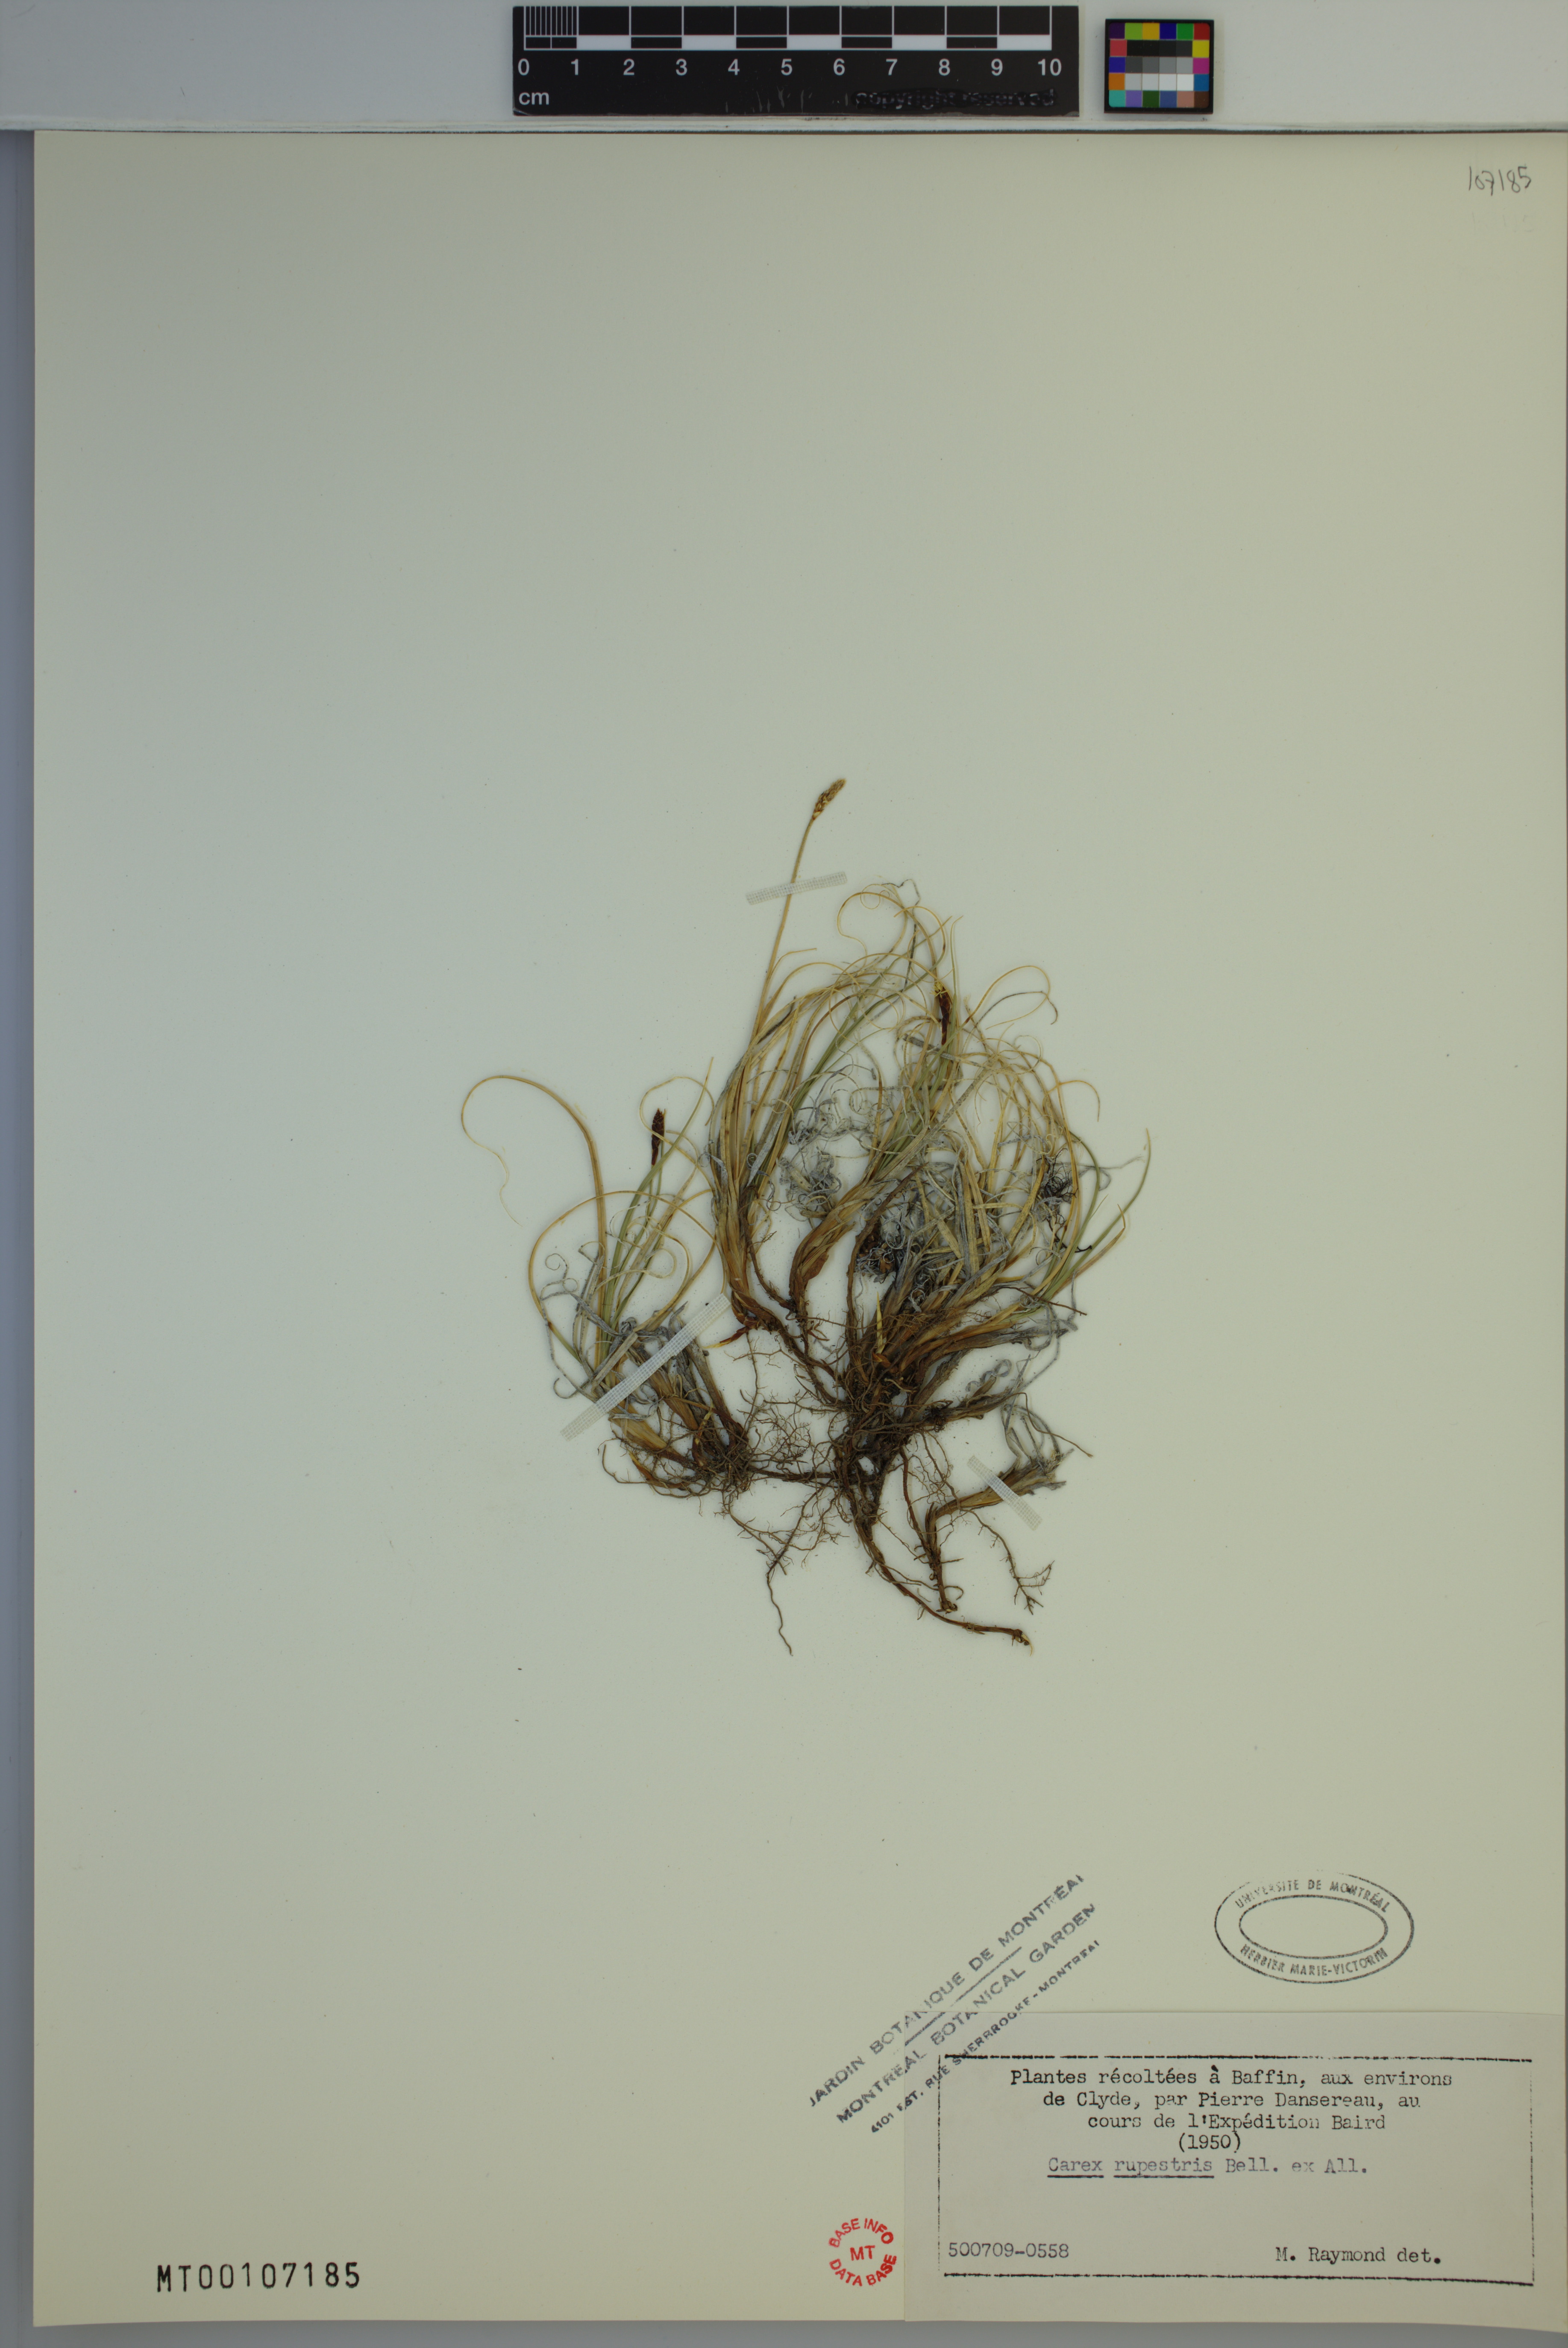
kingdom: Plantae
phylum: Tracheophyta
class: Liliopsida
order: Poales
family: Cyperaceae
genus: Carex
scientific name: Carex rupestris
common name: Rock sedge
